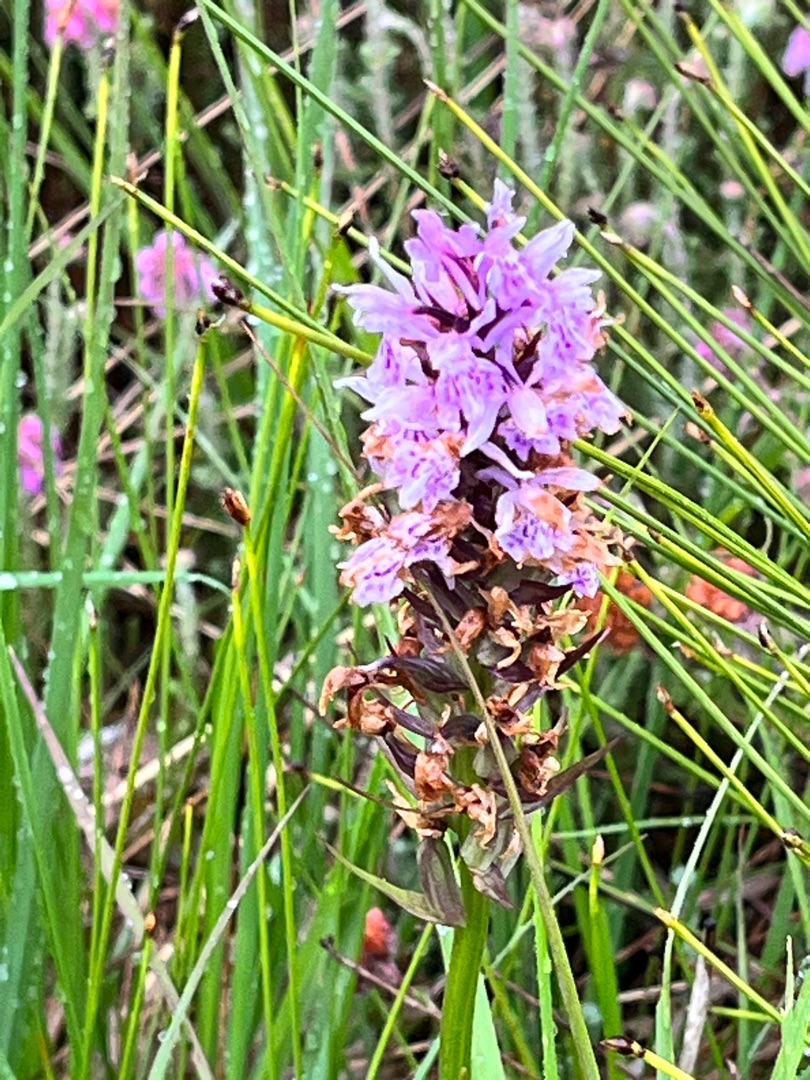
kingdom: Plantae
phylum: Tracheophyta
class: Liliopsida
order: Asparagales
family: Orchidaceae
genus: Dactylorhiza
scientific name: Dactylorhiza maculata
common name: Plettet gøgeurt
